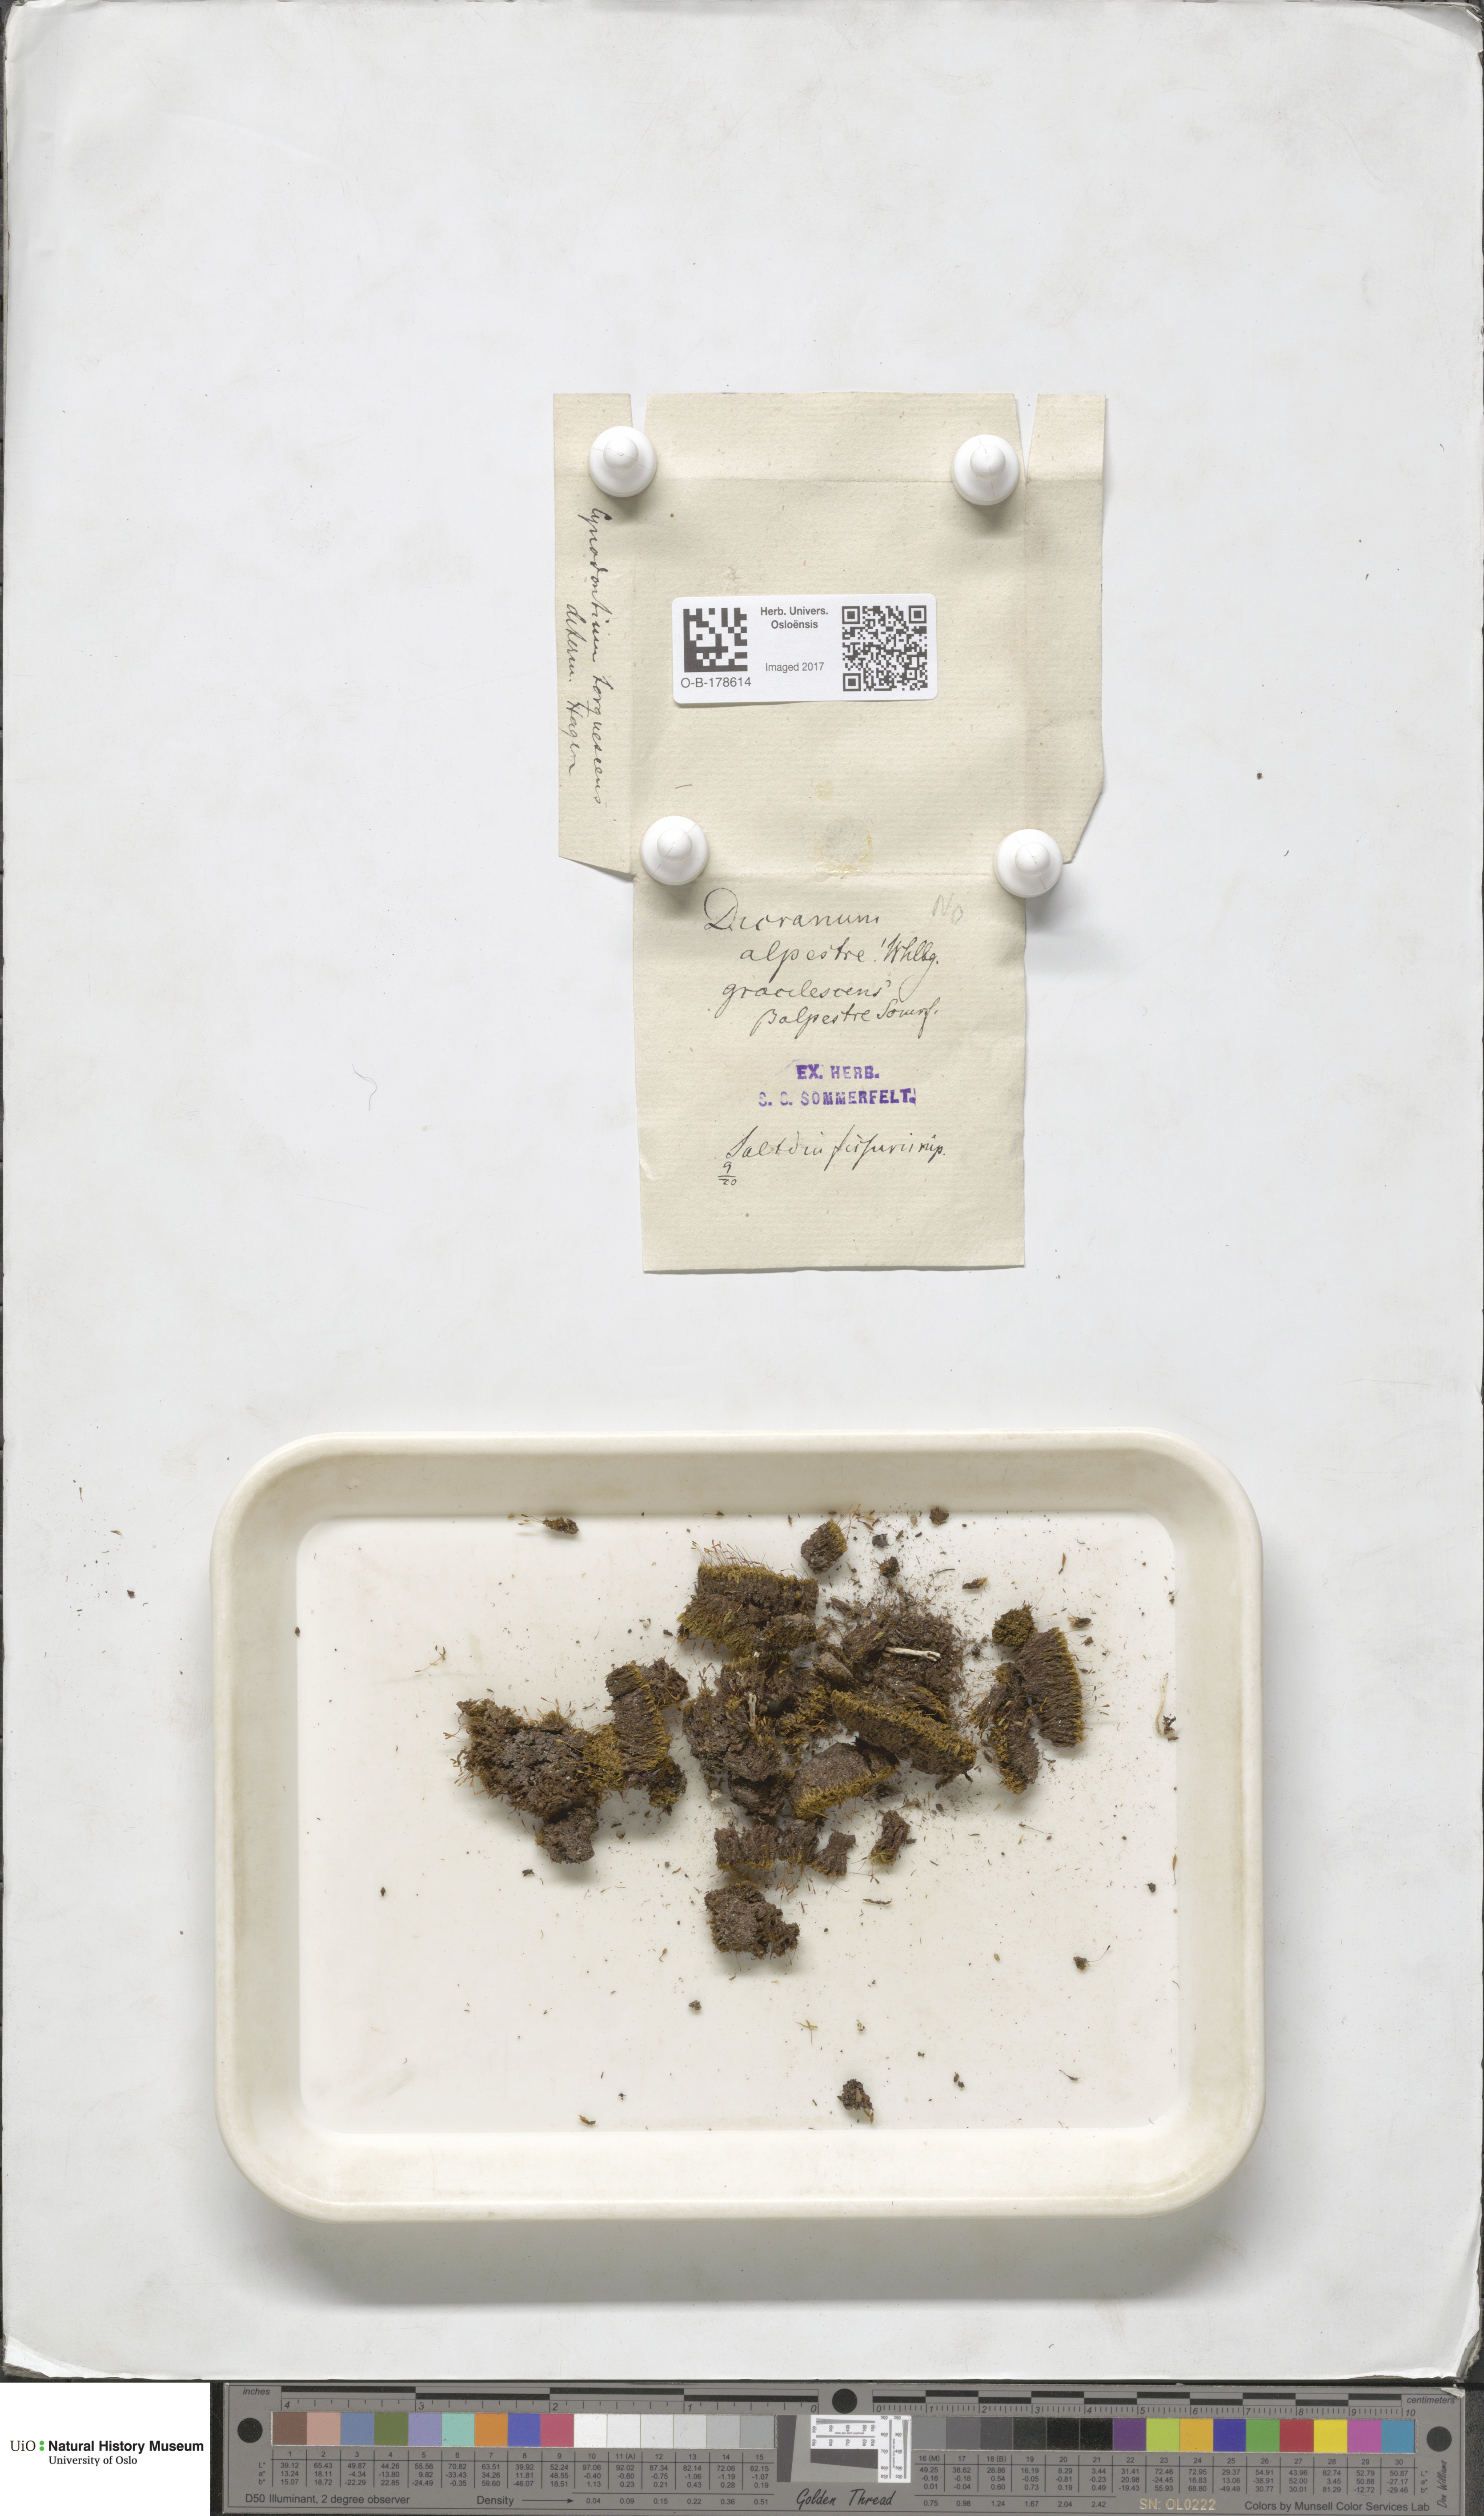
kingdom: Plantae
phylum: Bryophyta
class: Bryopsida
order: Dicranales
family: Rhabdoweisiaceae
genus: Cnestrum
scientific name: Cnestrum alpestre
